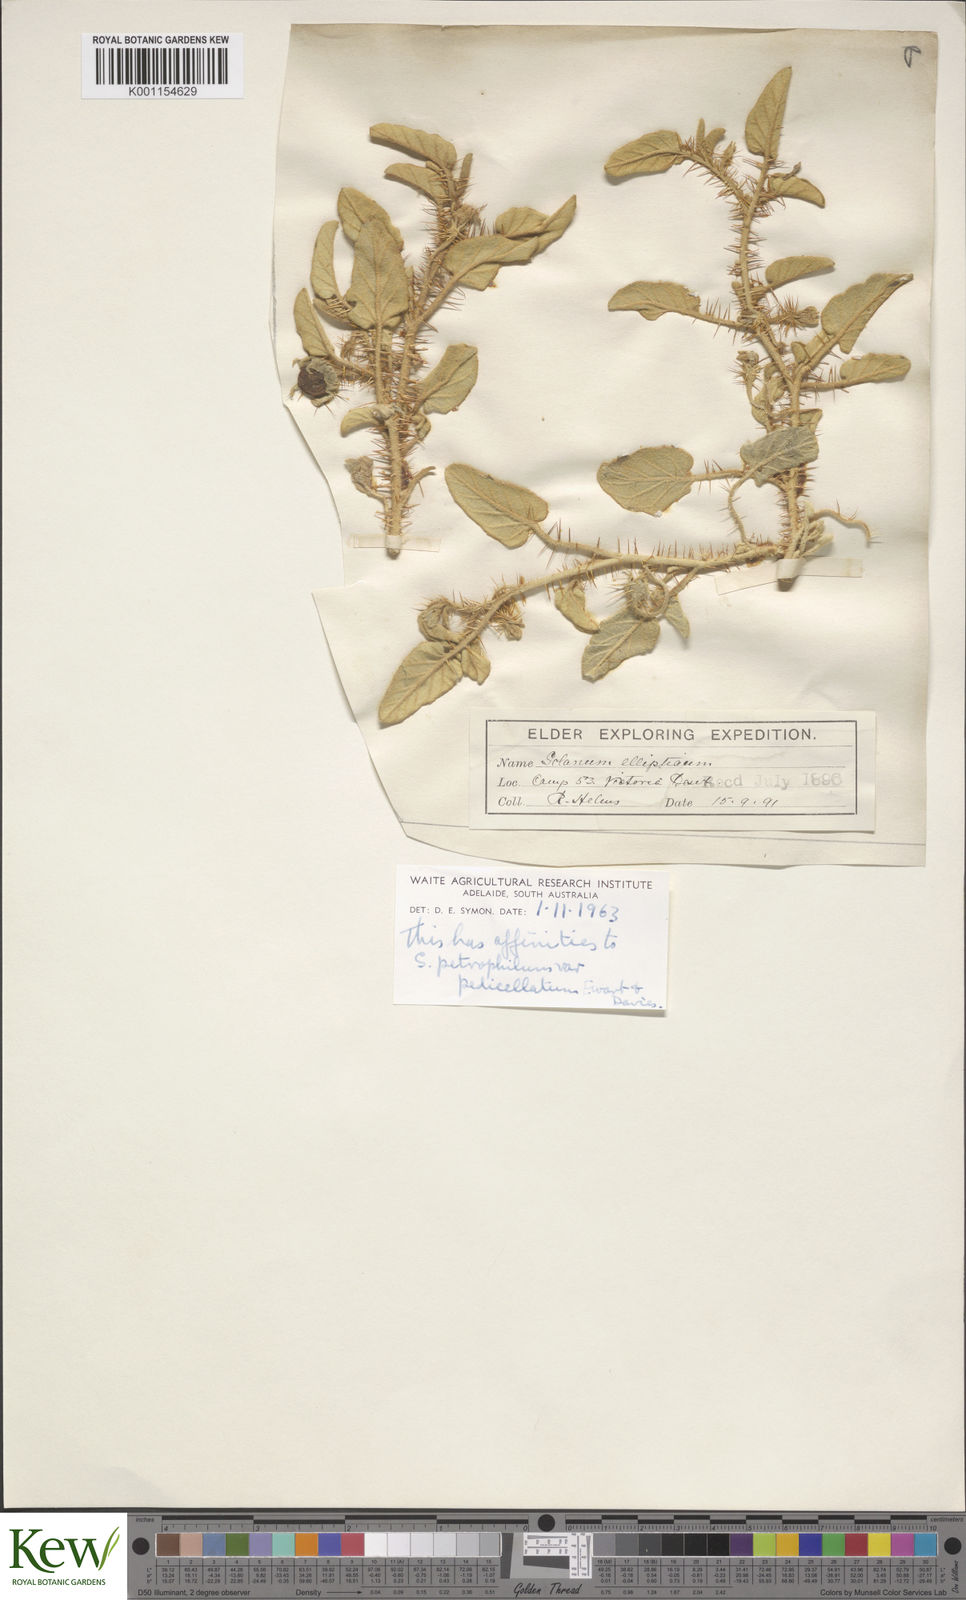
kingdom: Plantae
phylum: Tracheophyta
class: Magnoliopsida
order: Solanales
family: Solanaceae
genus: Solanum
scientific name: Solanum ellipticum
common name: Potato-bush
